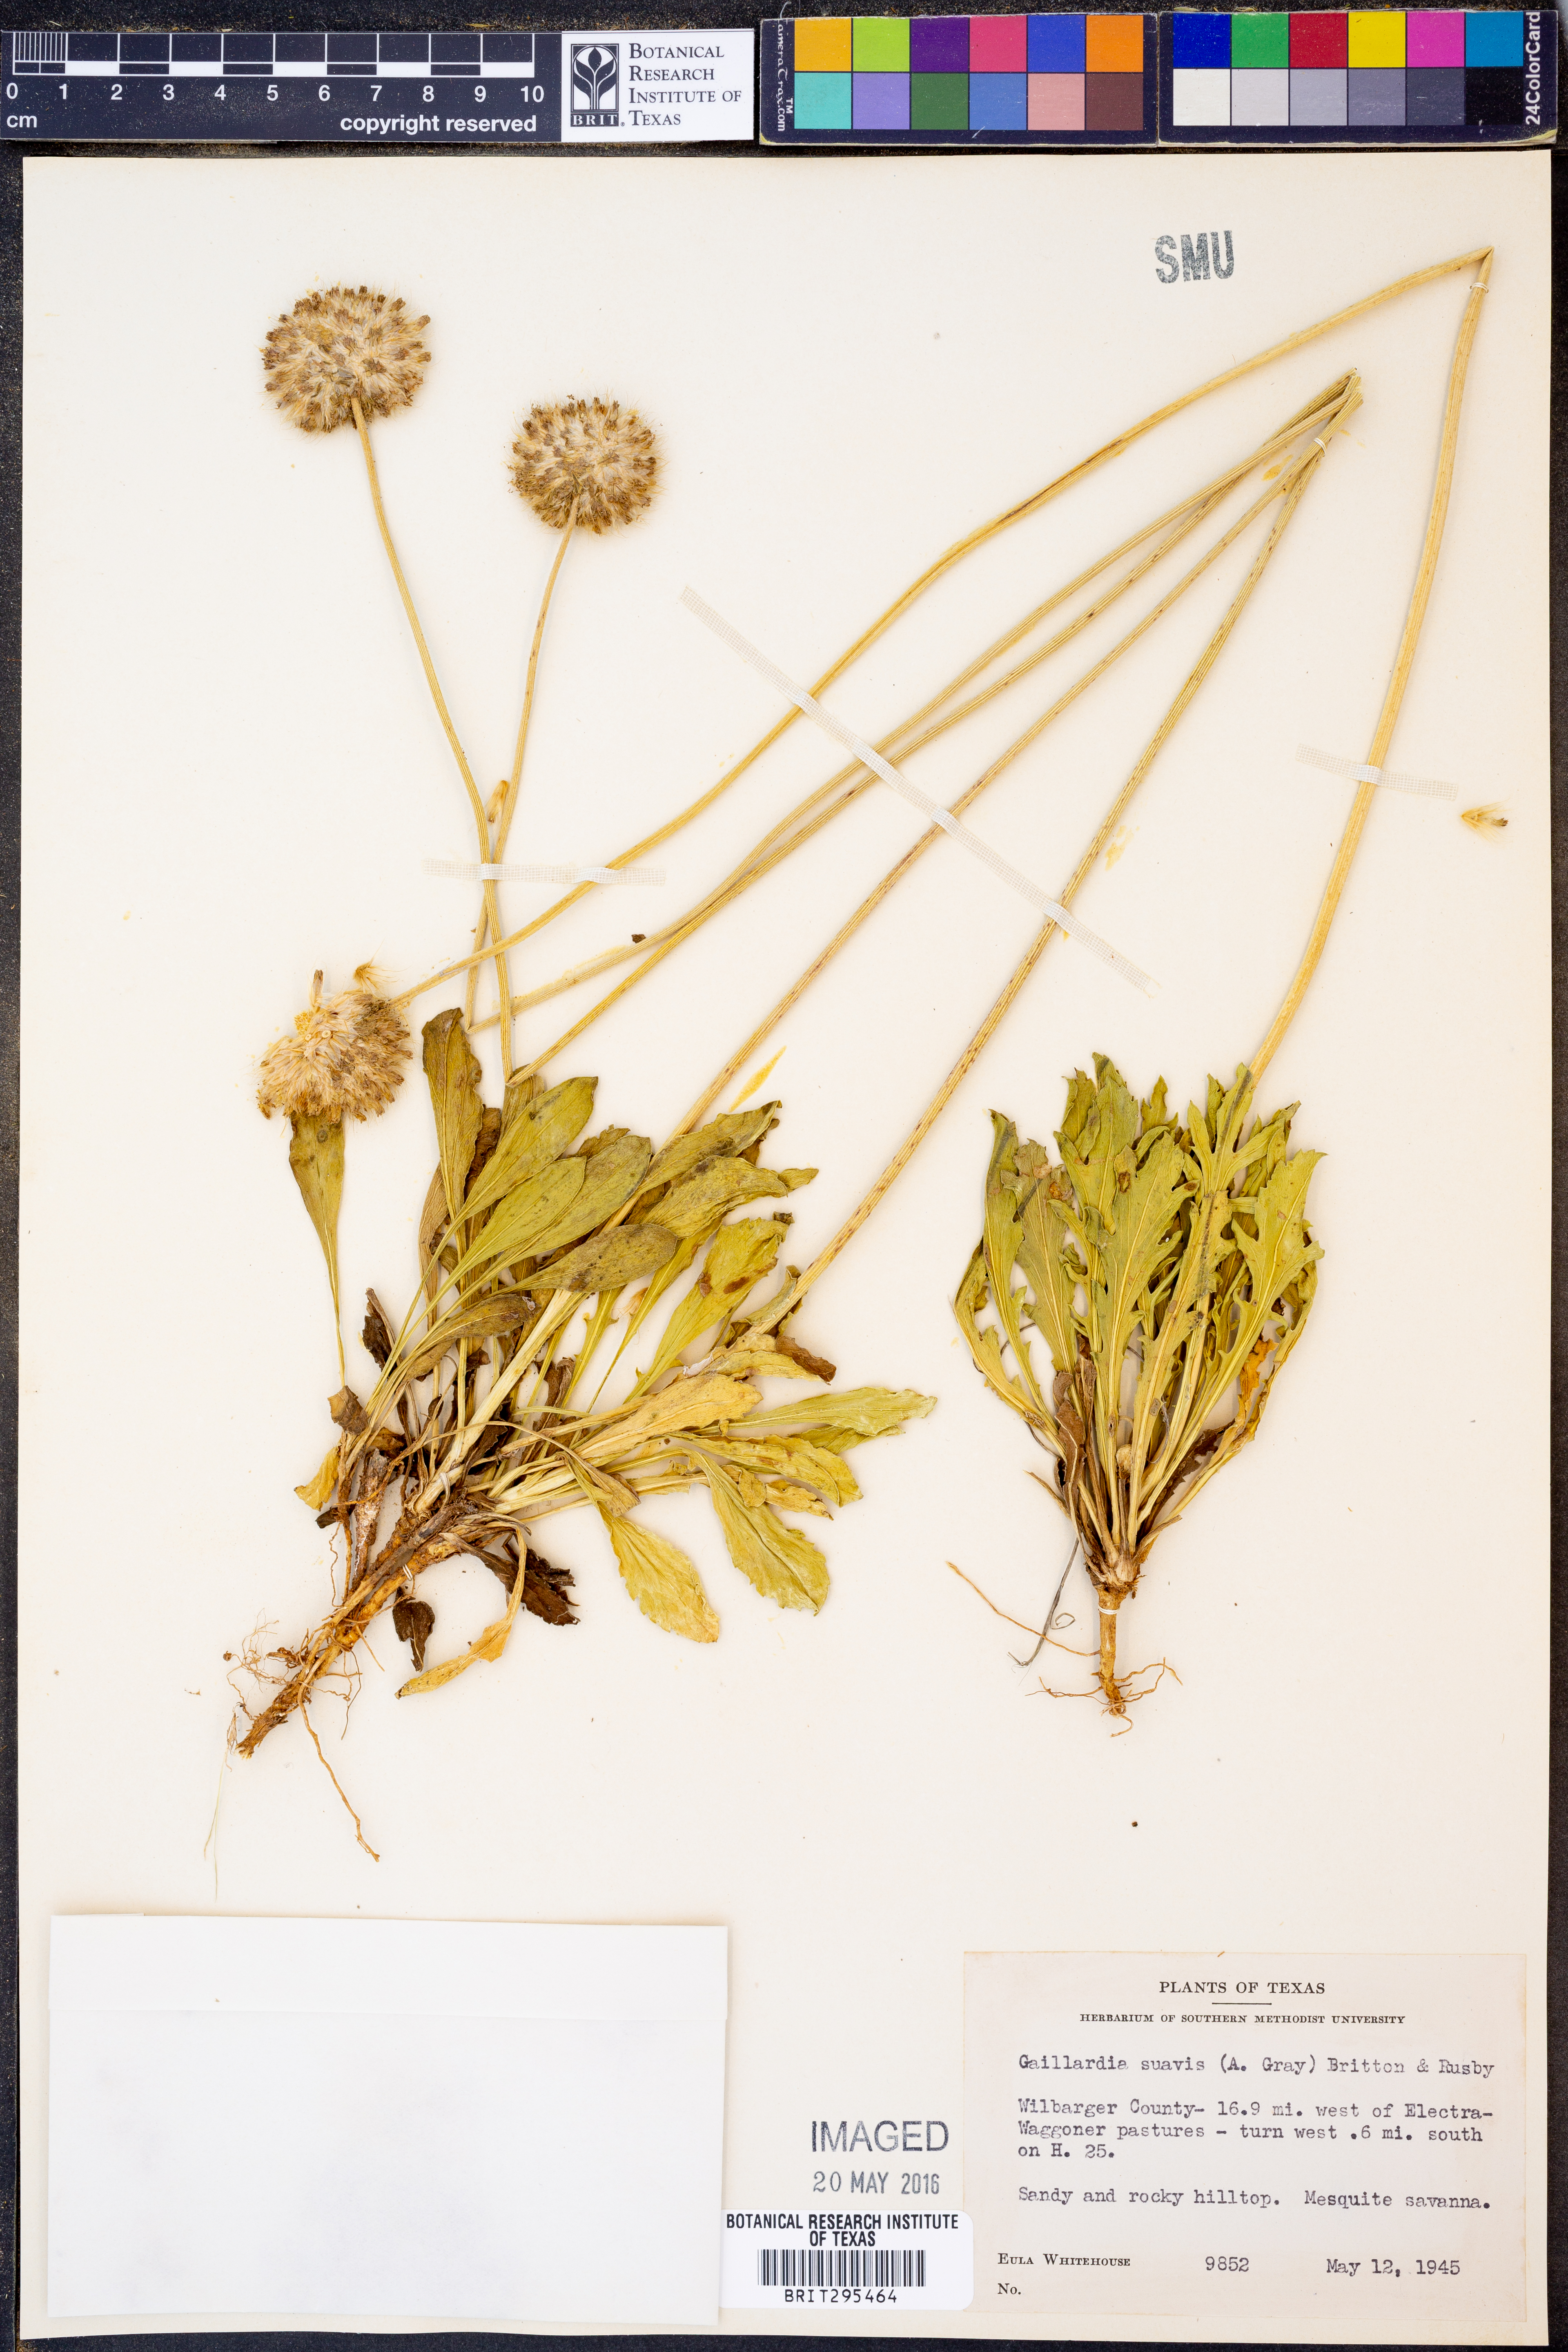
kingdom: Plantae
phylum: Tracheophyta
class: Magnoliopsida
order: Asterales
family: Asteraceae
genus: Gaillardia
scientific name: Gaillardia suavis
